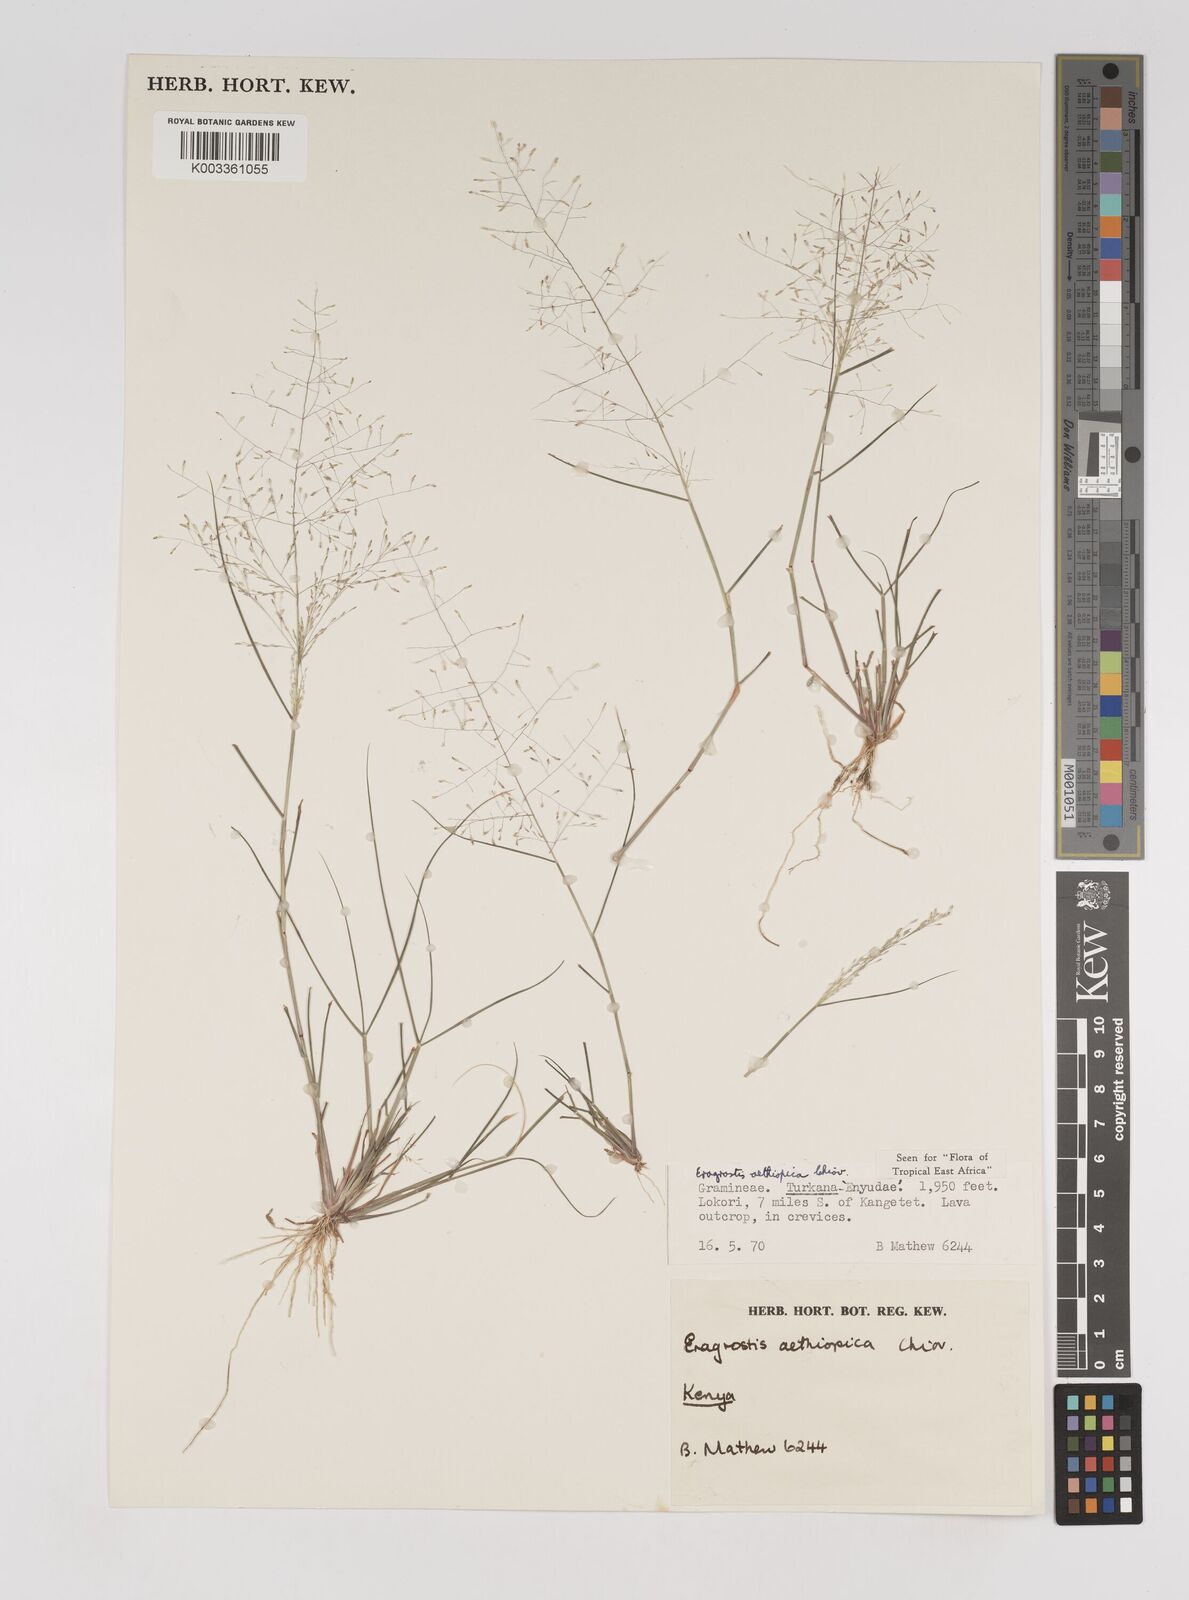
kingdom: Plantae
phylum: Tracheophyta
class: Liliopsida
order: Poales
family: Poaceae
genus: Eragrostis
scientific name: Eragrostis aethiopica
